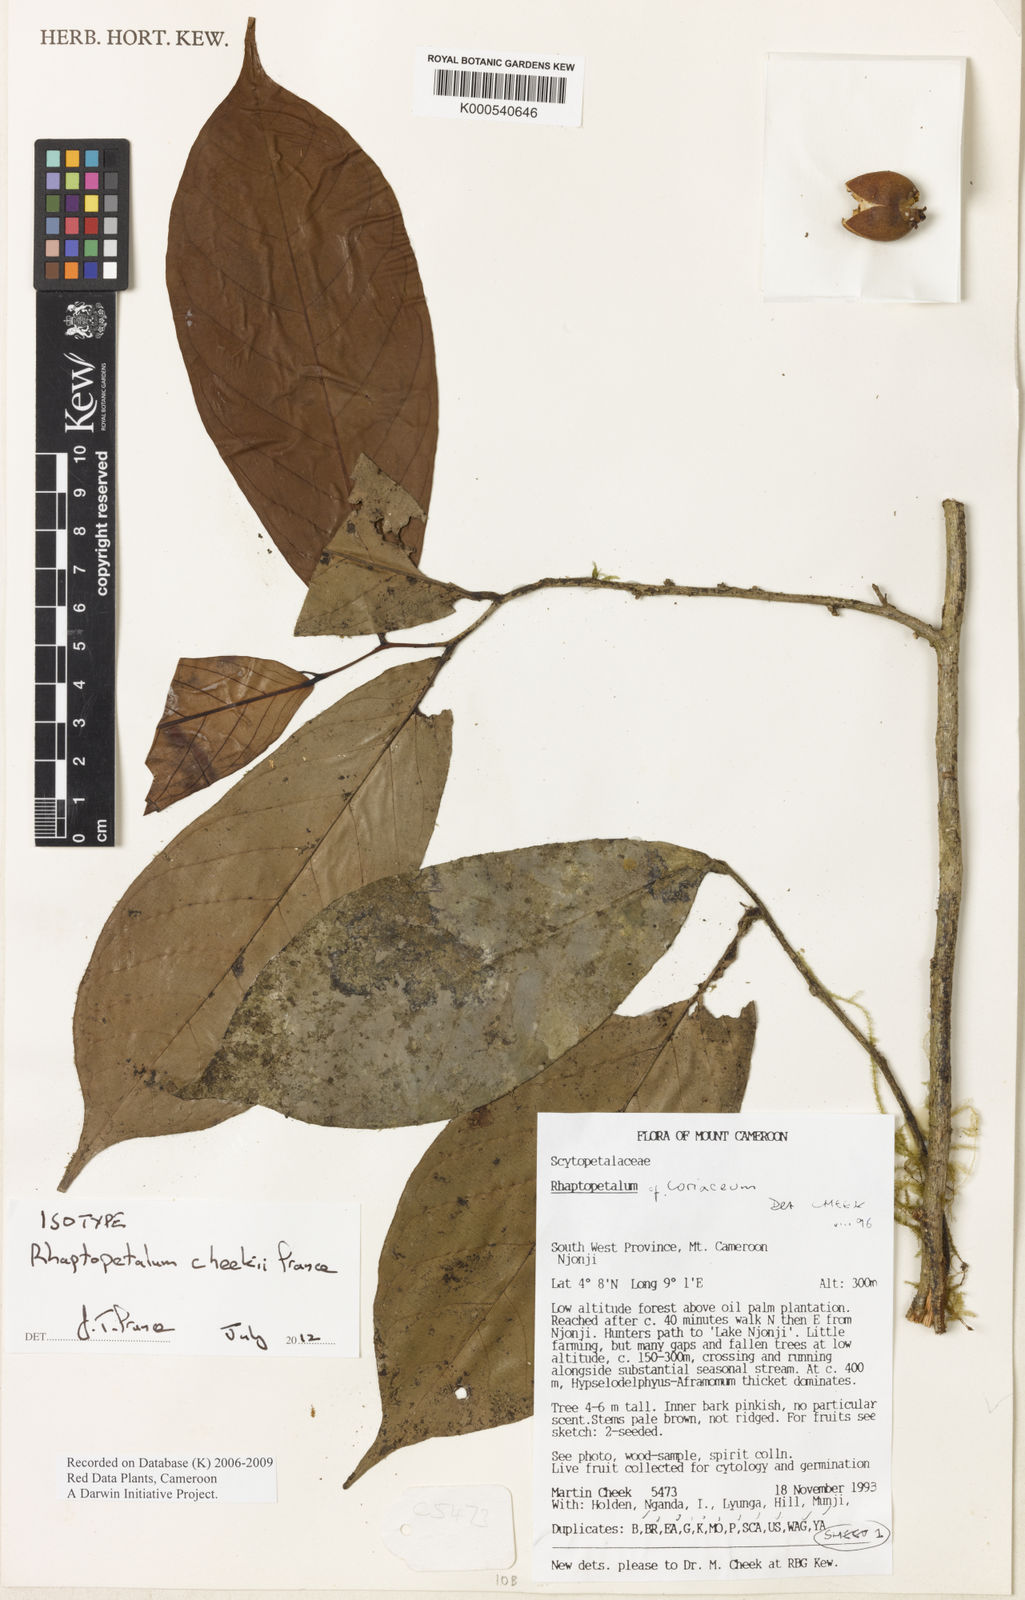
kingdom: Plantae
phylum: Tracheophyta
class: Magnoliopsida
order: Ericales
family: Lecythidaceae
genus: Rhaptopetalum
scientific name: Rhaptopetalum coriaceum
